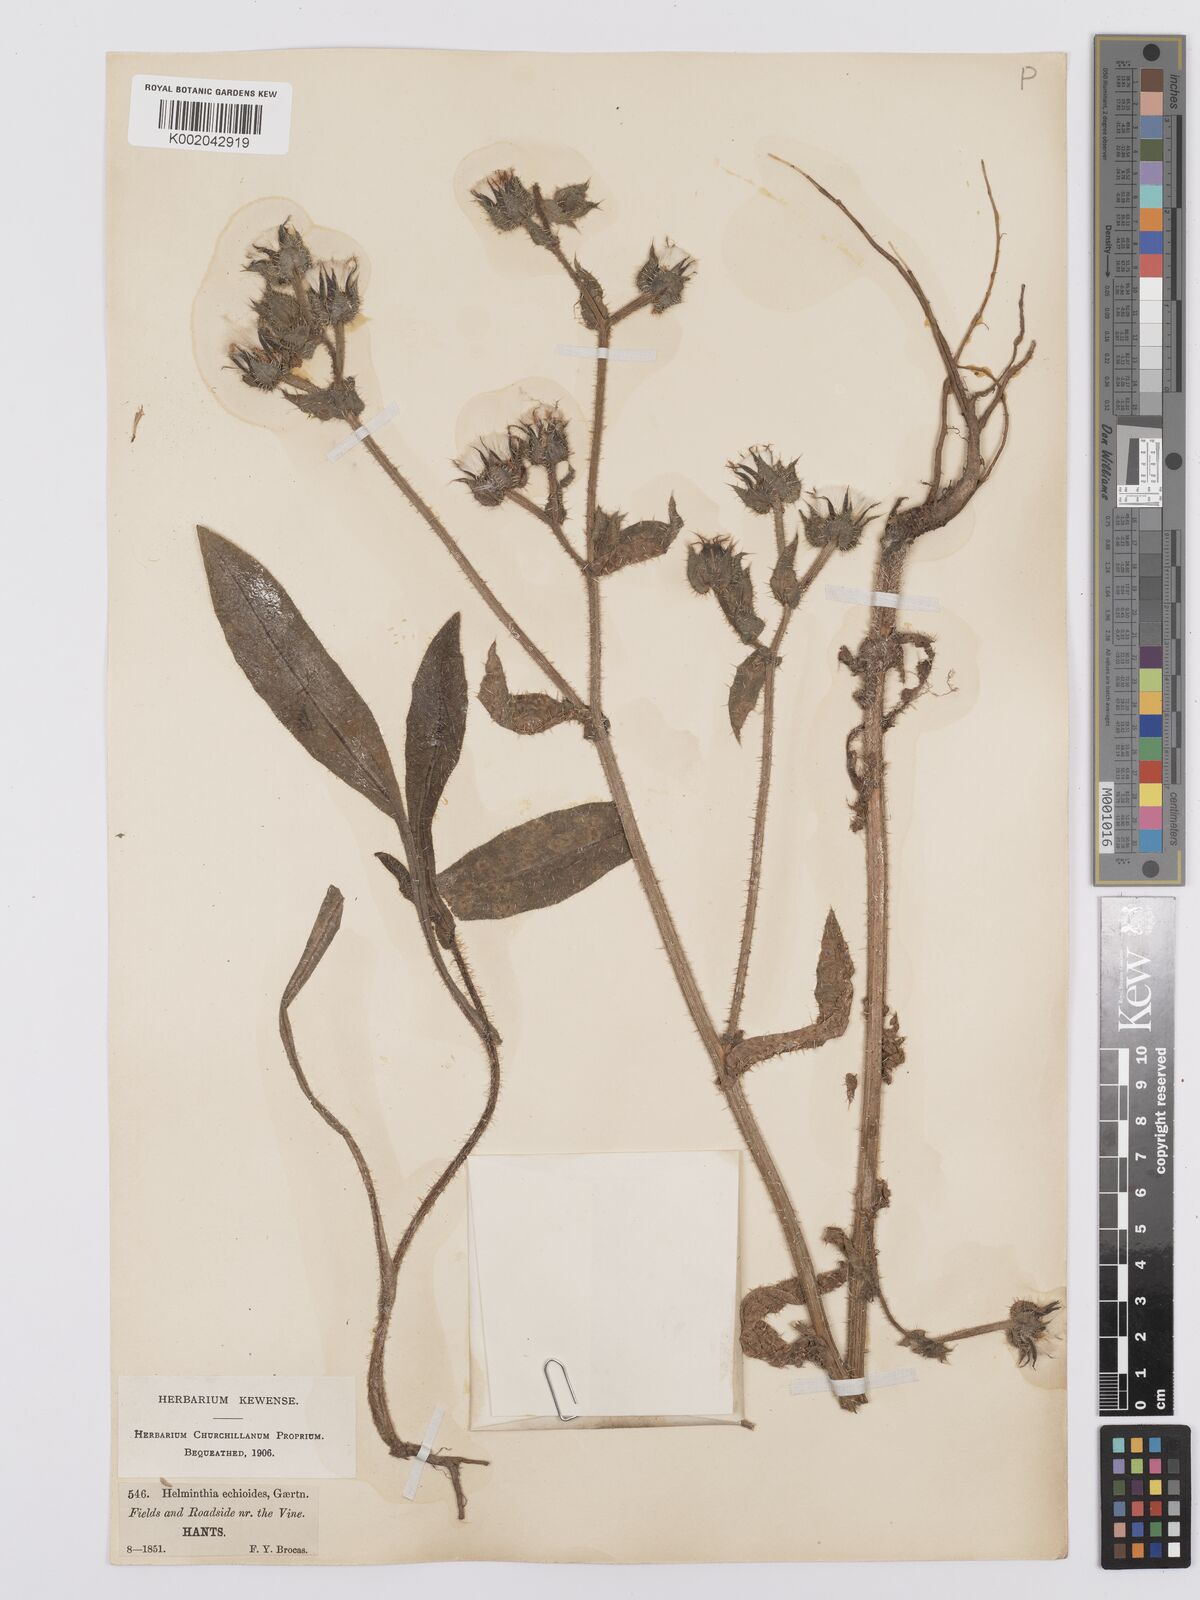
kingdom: Plantae
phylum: Tracheophyta
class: Magnoliopsida
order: Asterales
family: Asteraceae
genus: Helminthotheca
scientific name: Helminthotheca echioides
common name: Ox-tongue
